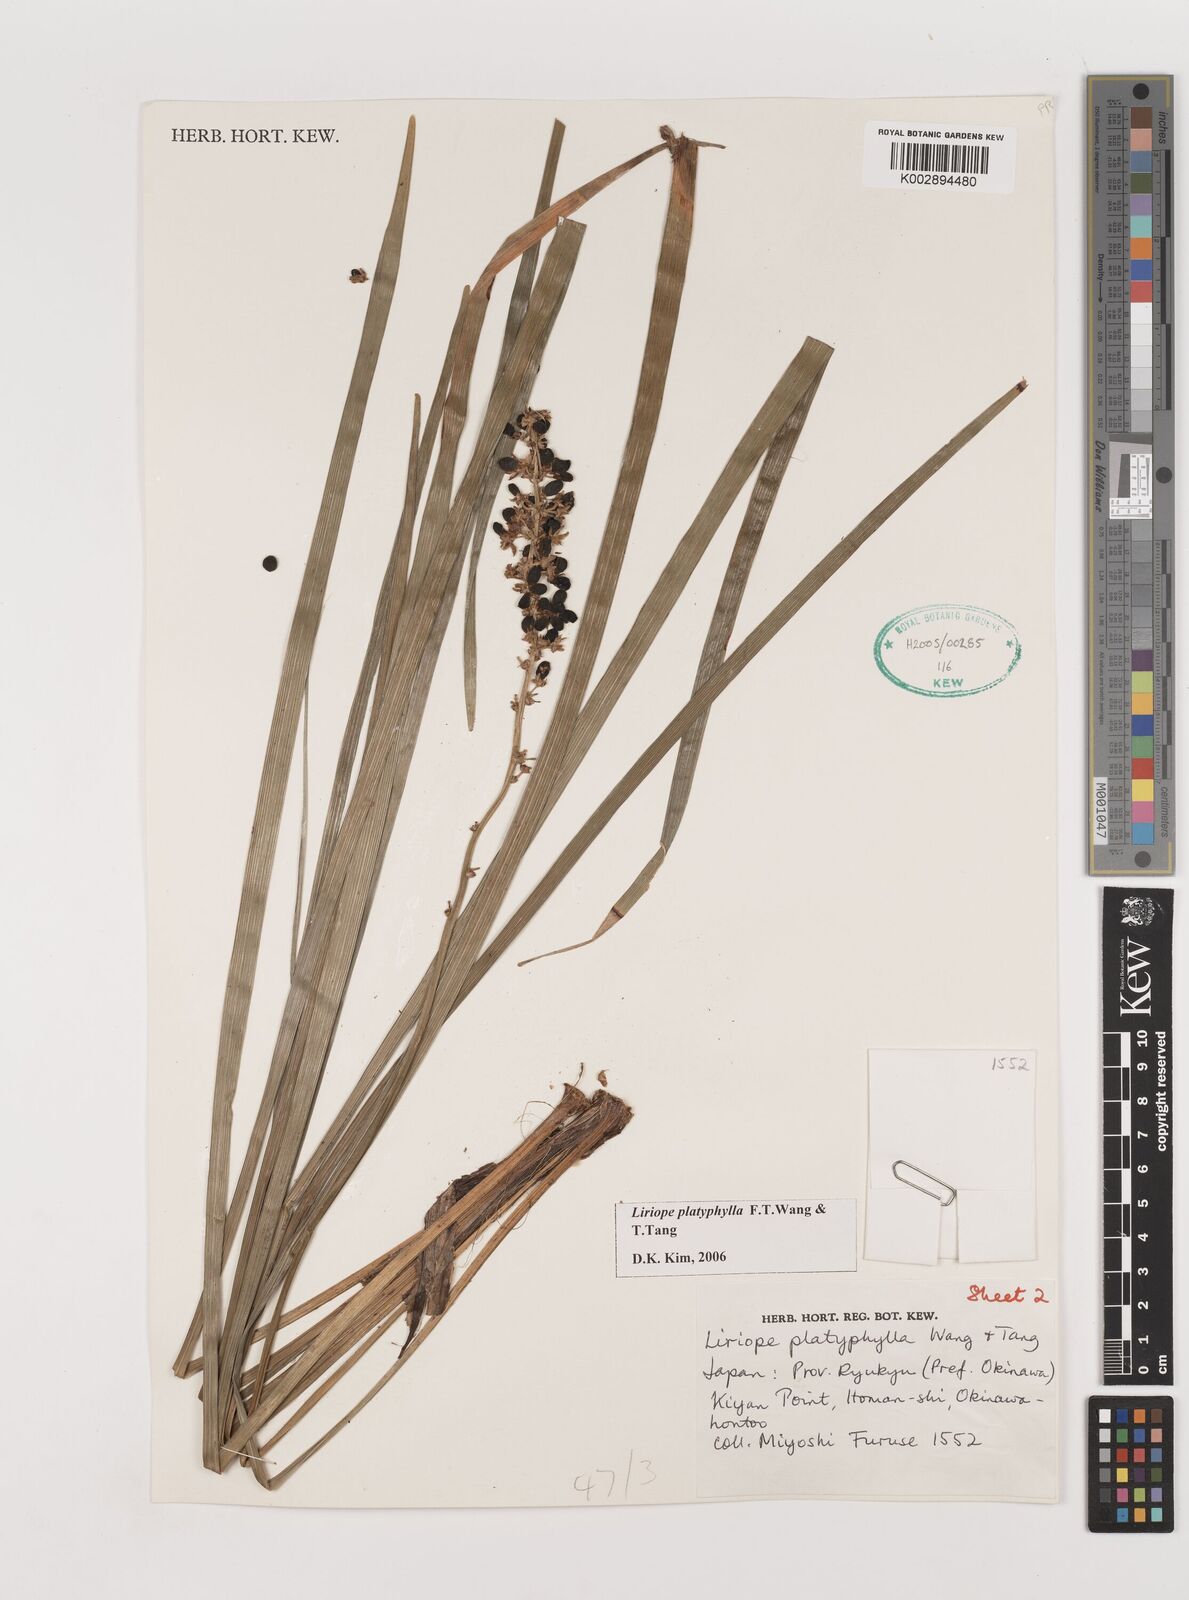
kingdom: Plantae
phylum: Tracheophyta
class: Liliopsida
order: Asparagales
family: Asparagaceae
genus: Liriope
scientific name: Liriope muscari
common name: Big blue lilyturf
